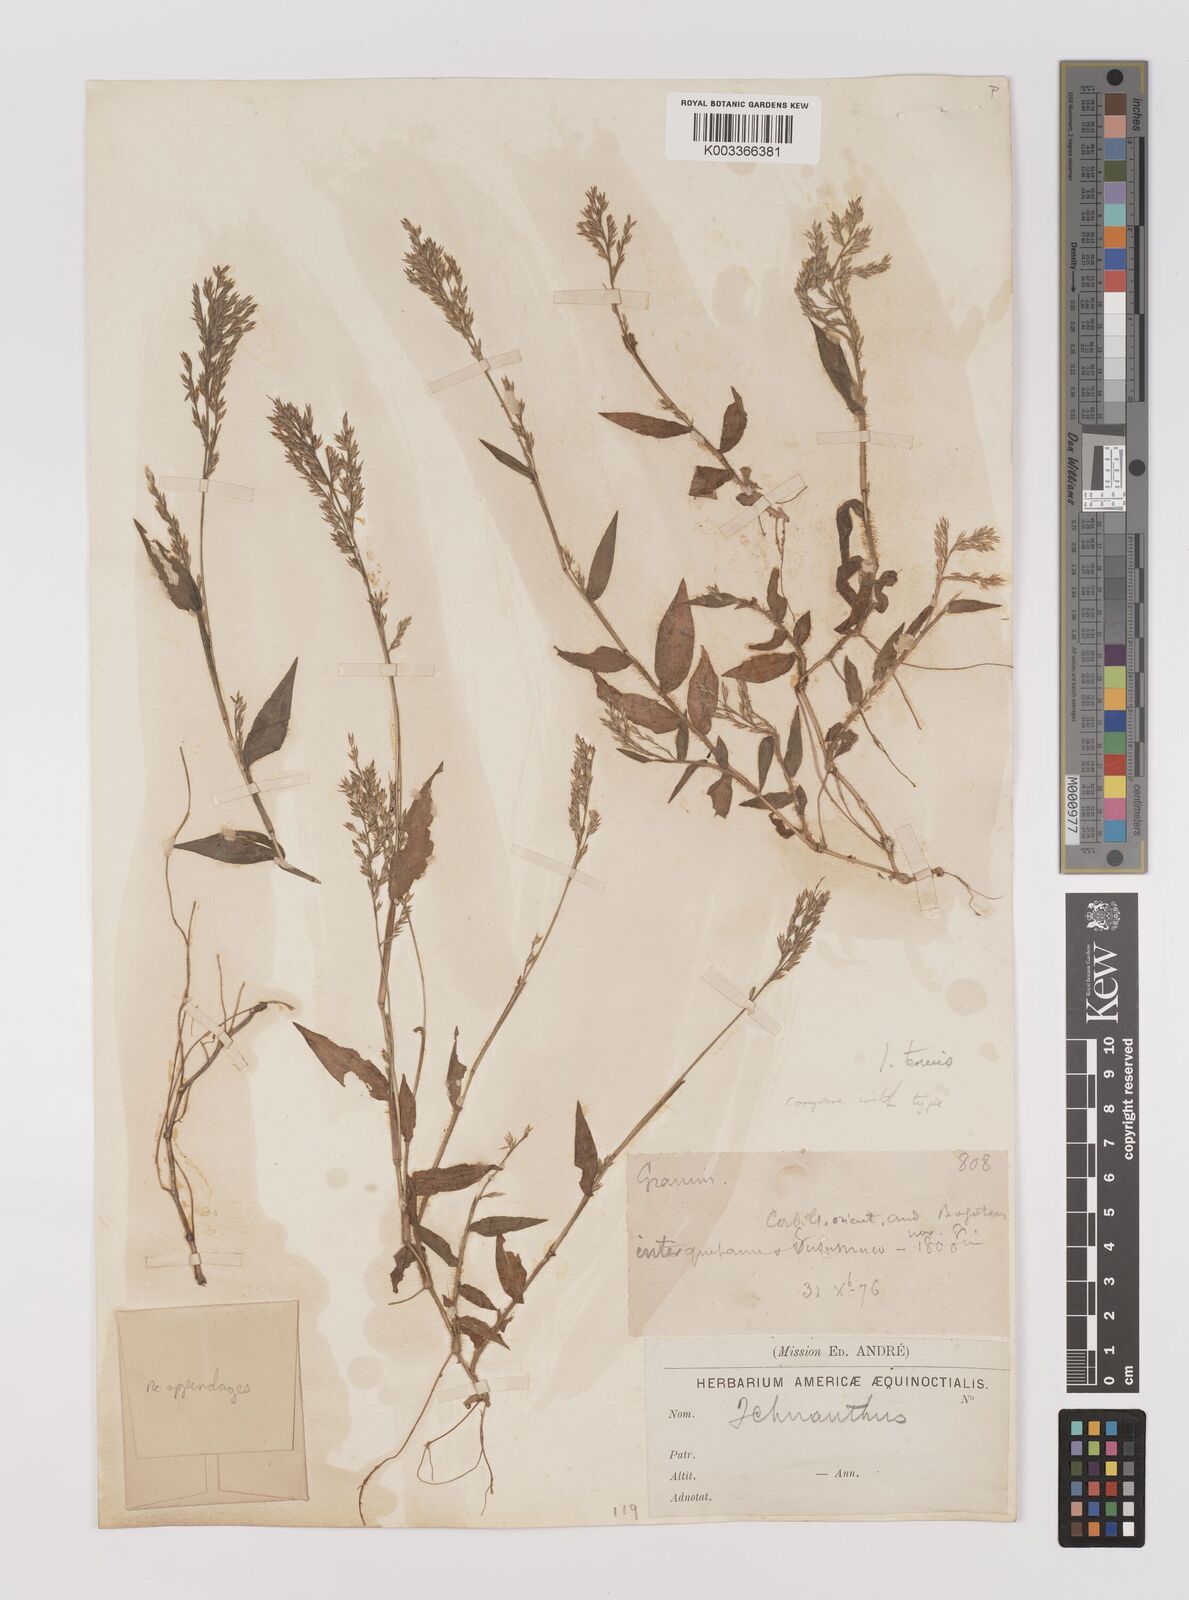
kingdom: Plantae
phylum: Tracheophyta
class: Liliopsida
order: Poales
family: Poaceae
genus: Ichnanthus
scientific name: Ichnanthus tenuis
